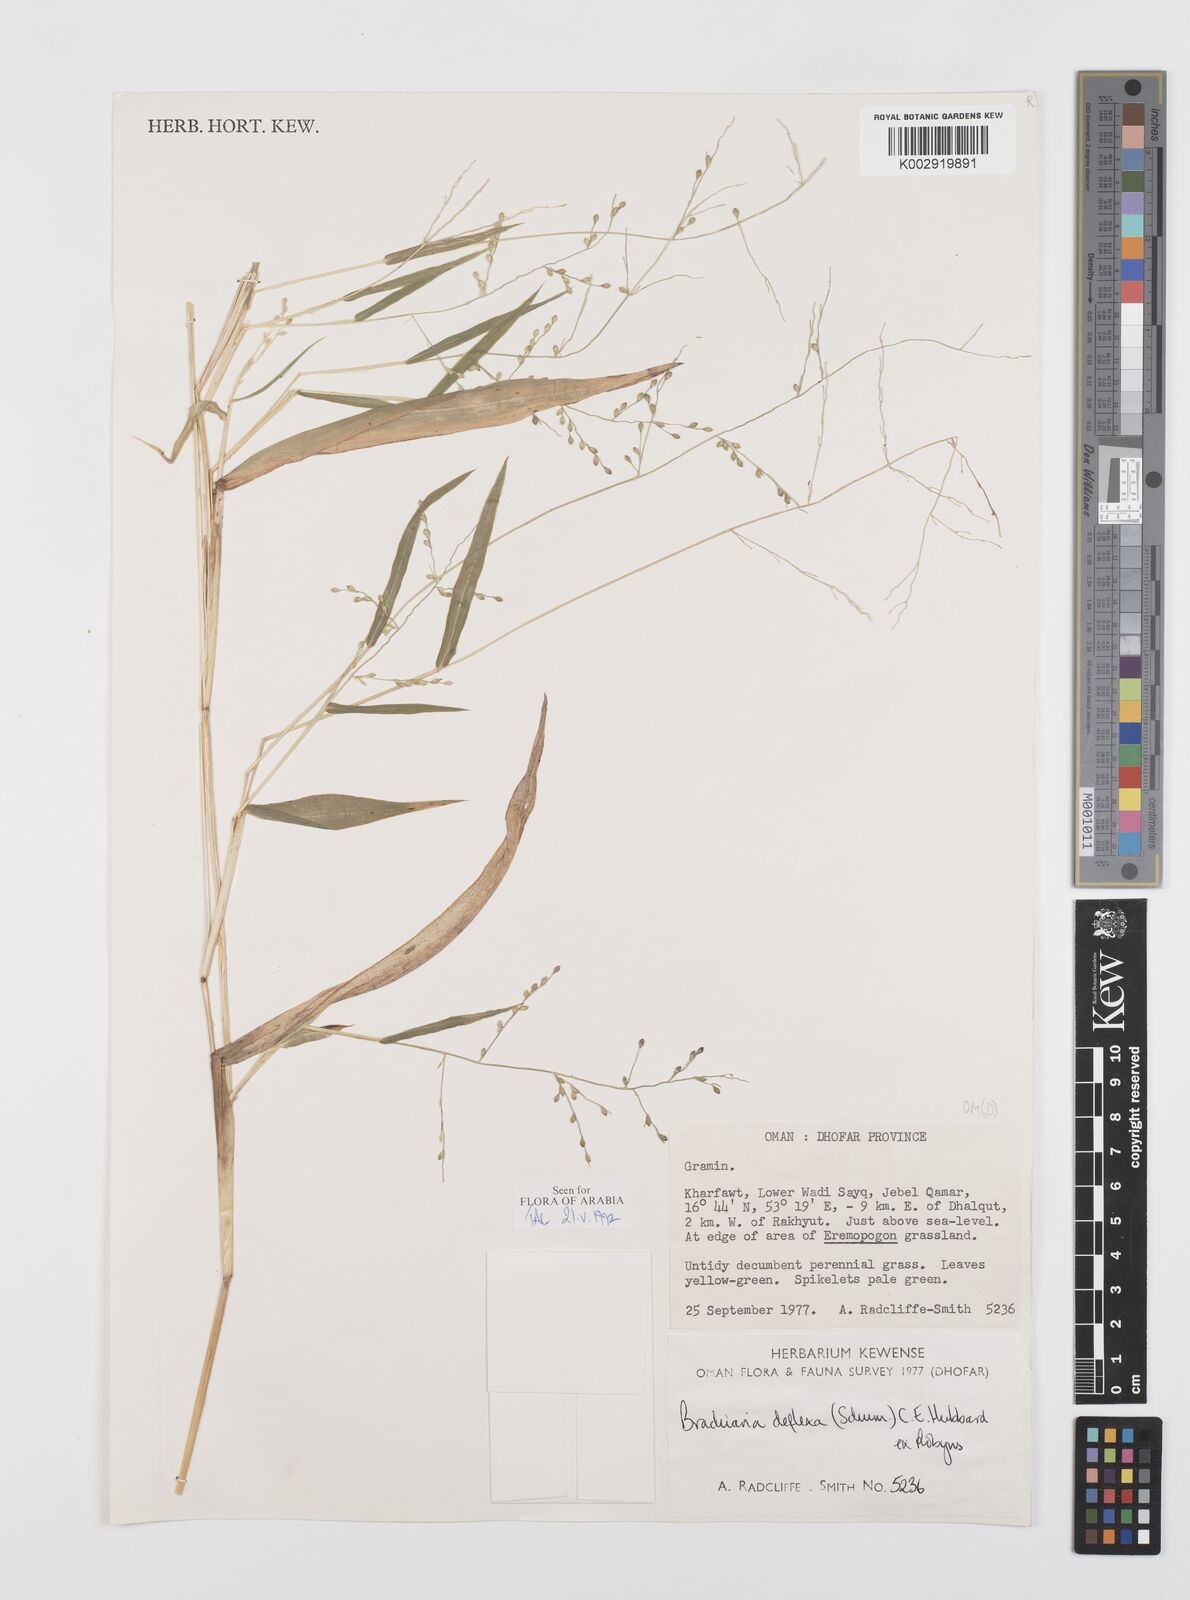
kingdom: Plantae
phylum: Tracheophyta
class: Liliopsida
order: Poales
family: Poaceae
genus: Urochloa
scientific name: Urochloa deflexa
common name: Guinea millet
